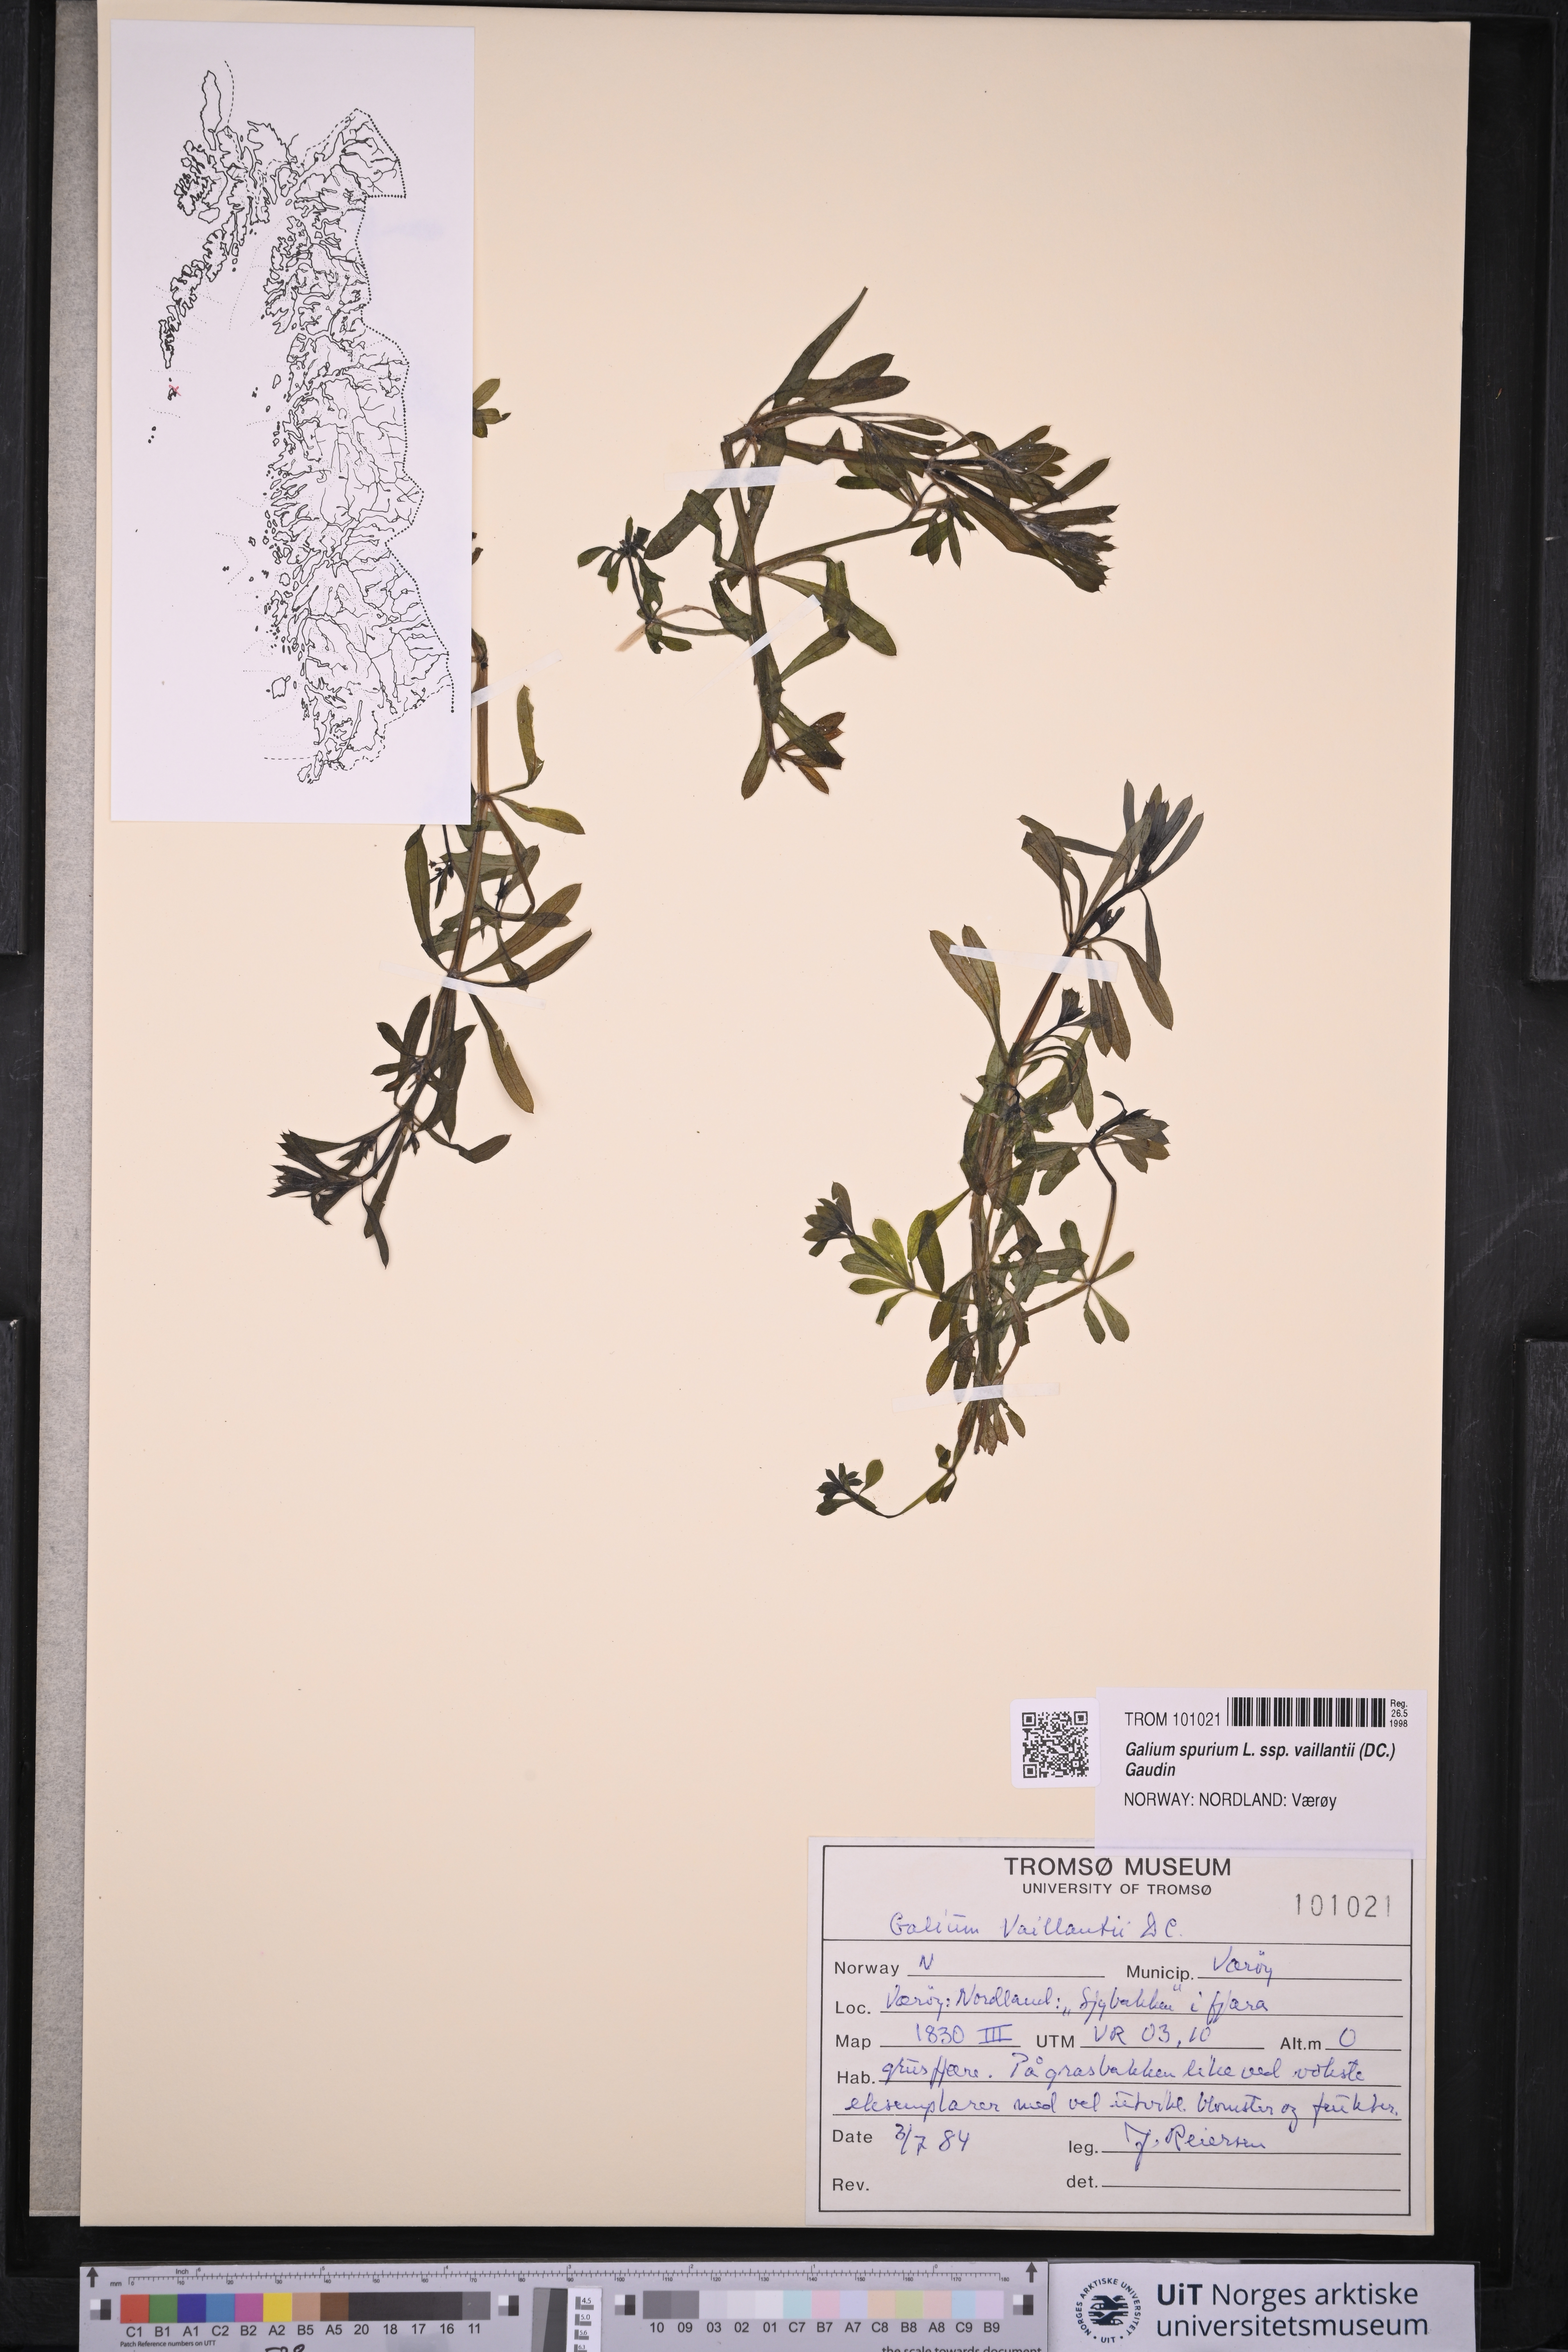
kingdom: Plantae
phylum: Tracheophyta
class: Magnoliopsida
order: Gentianales
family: Rubiaceae
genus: Galium
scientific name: Galium spurium
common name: False cleavers
